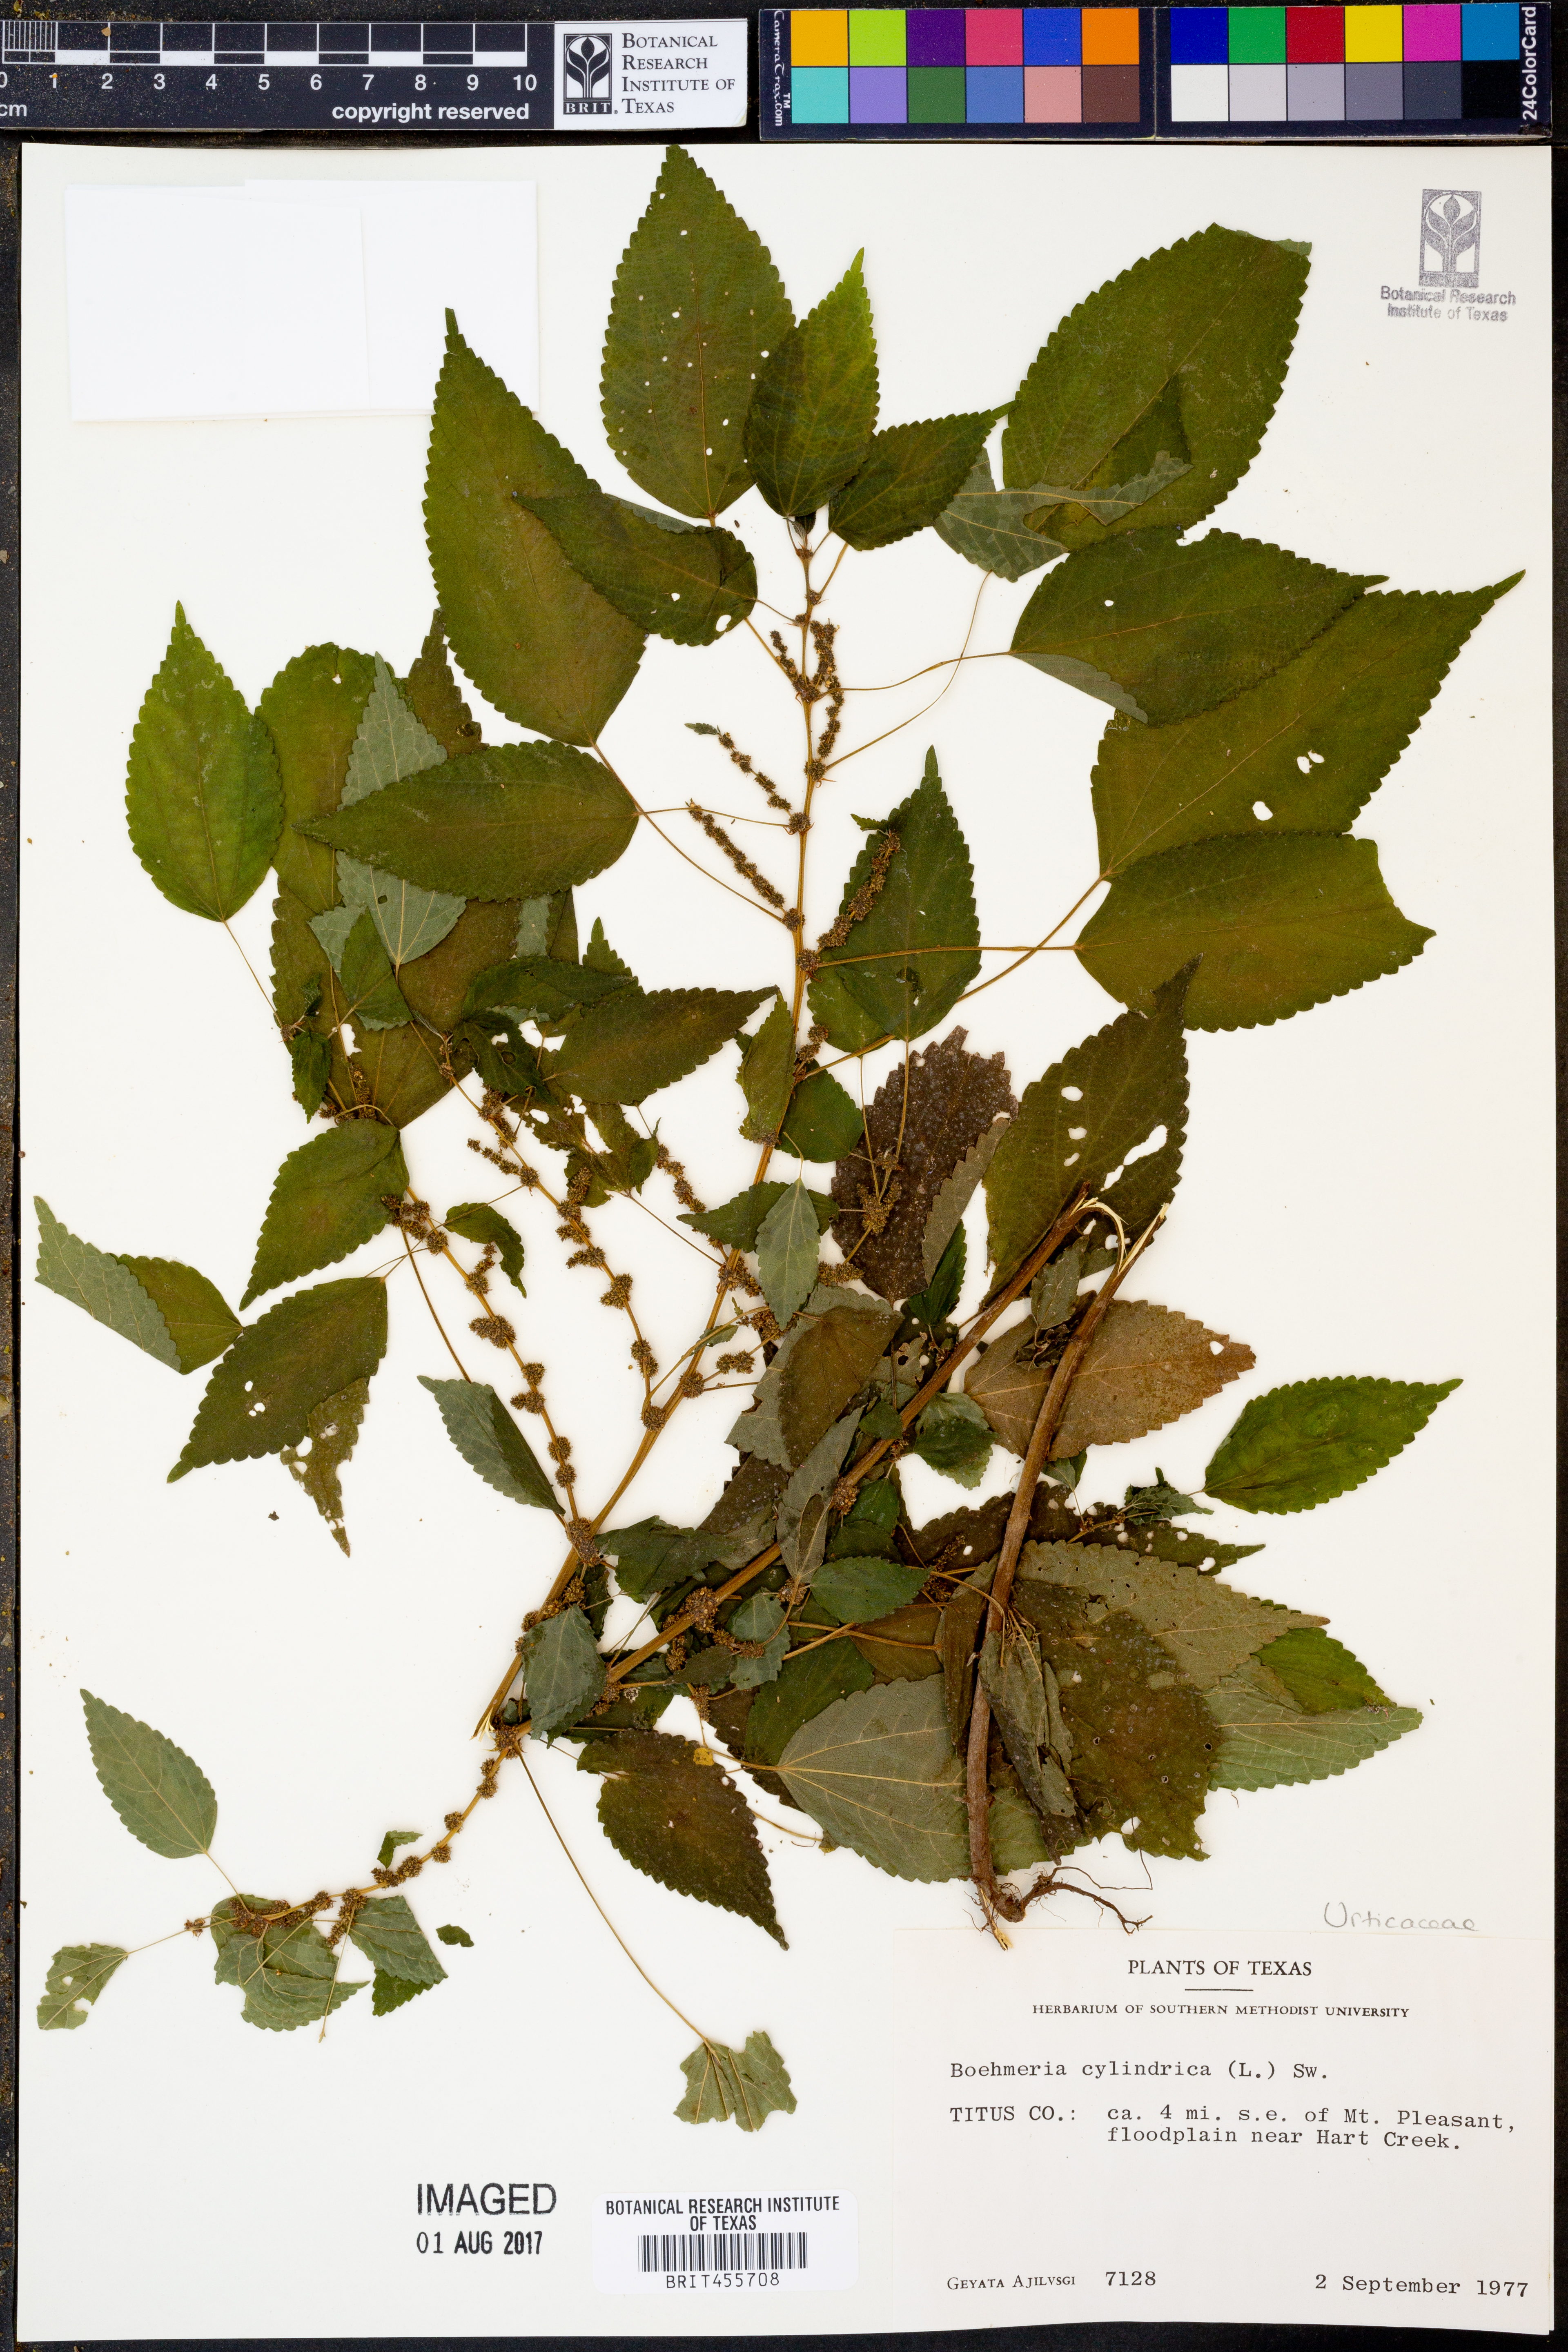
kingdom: Plantae
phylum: Tracheophyta
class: Magnoliopsida
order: Rosales
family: Urticaceae
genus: Boehmeria
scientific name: Boehmeria cylindrica
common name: Bog-hemp
